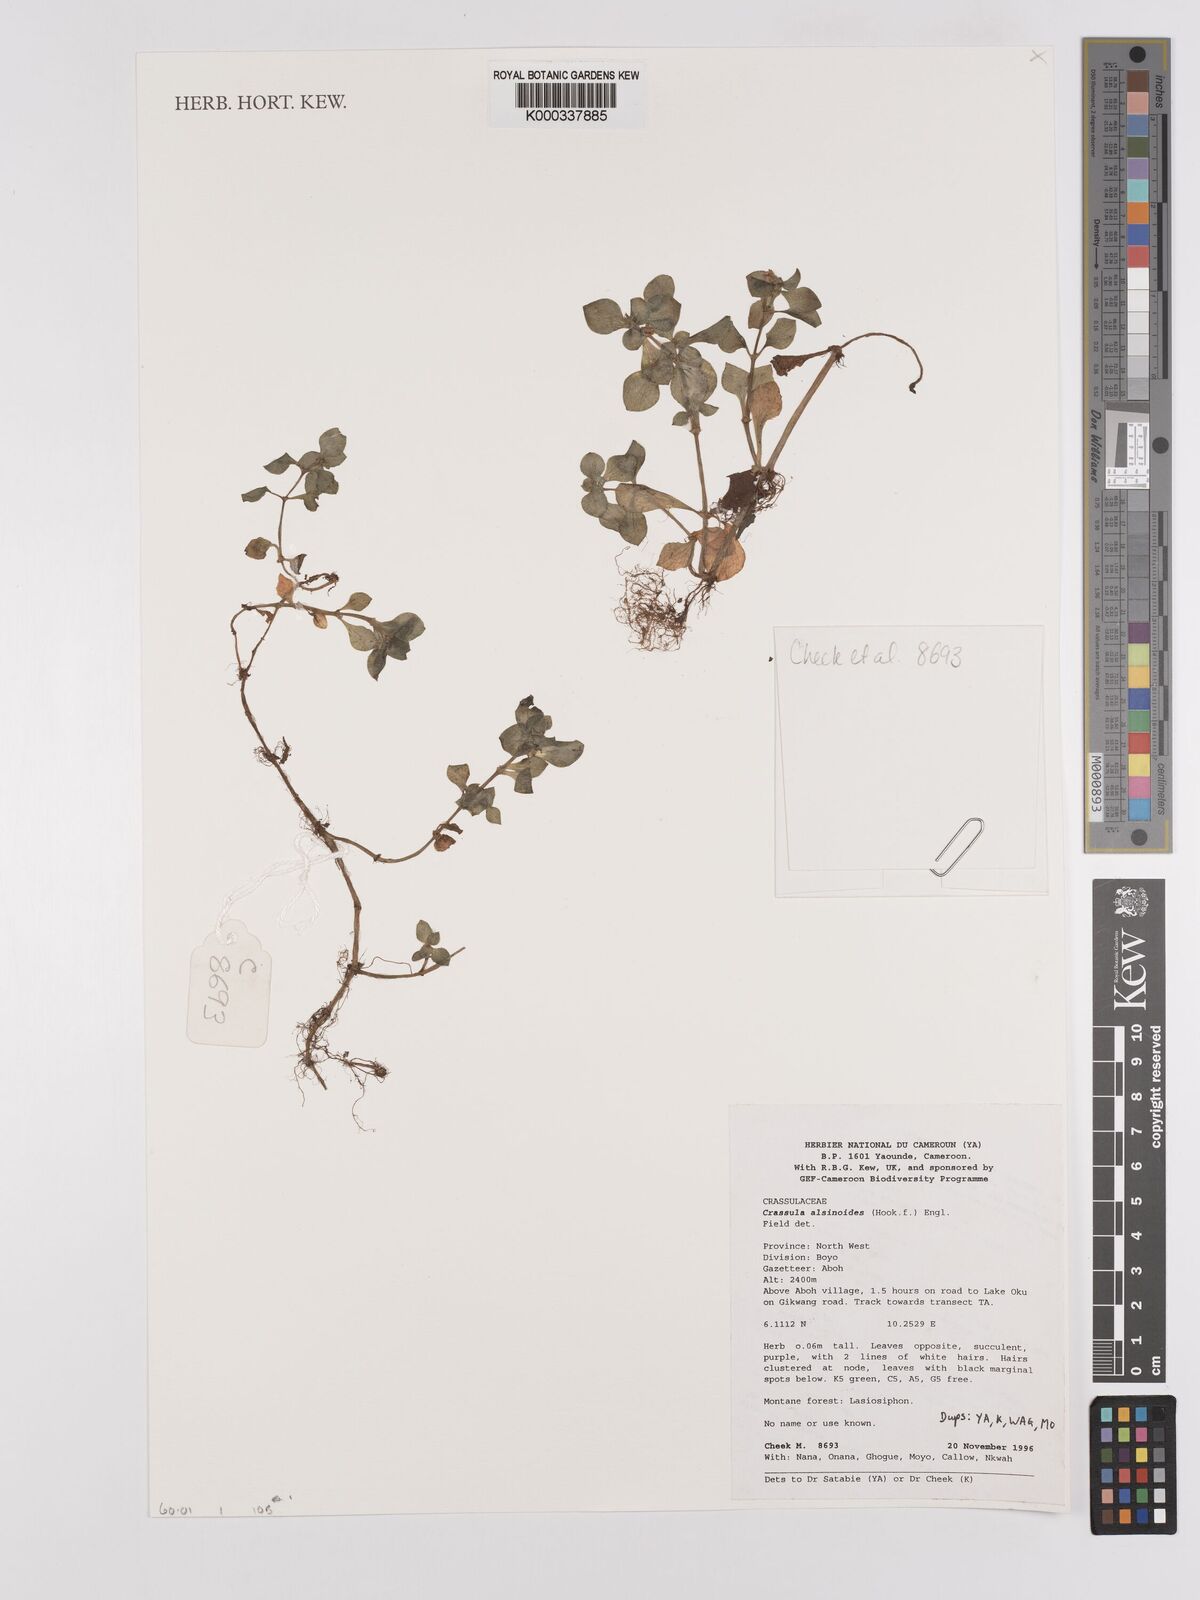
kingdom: Plantae
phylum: Tracheophyta
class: Magnoliopsida
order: Saxifragales
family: Crassulaceae
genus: Crassula
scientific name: Crassula alsinoides
